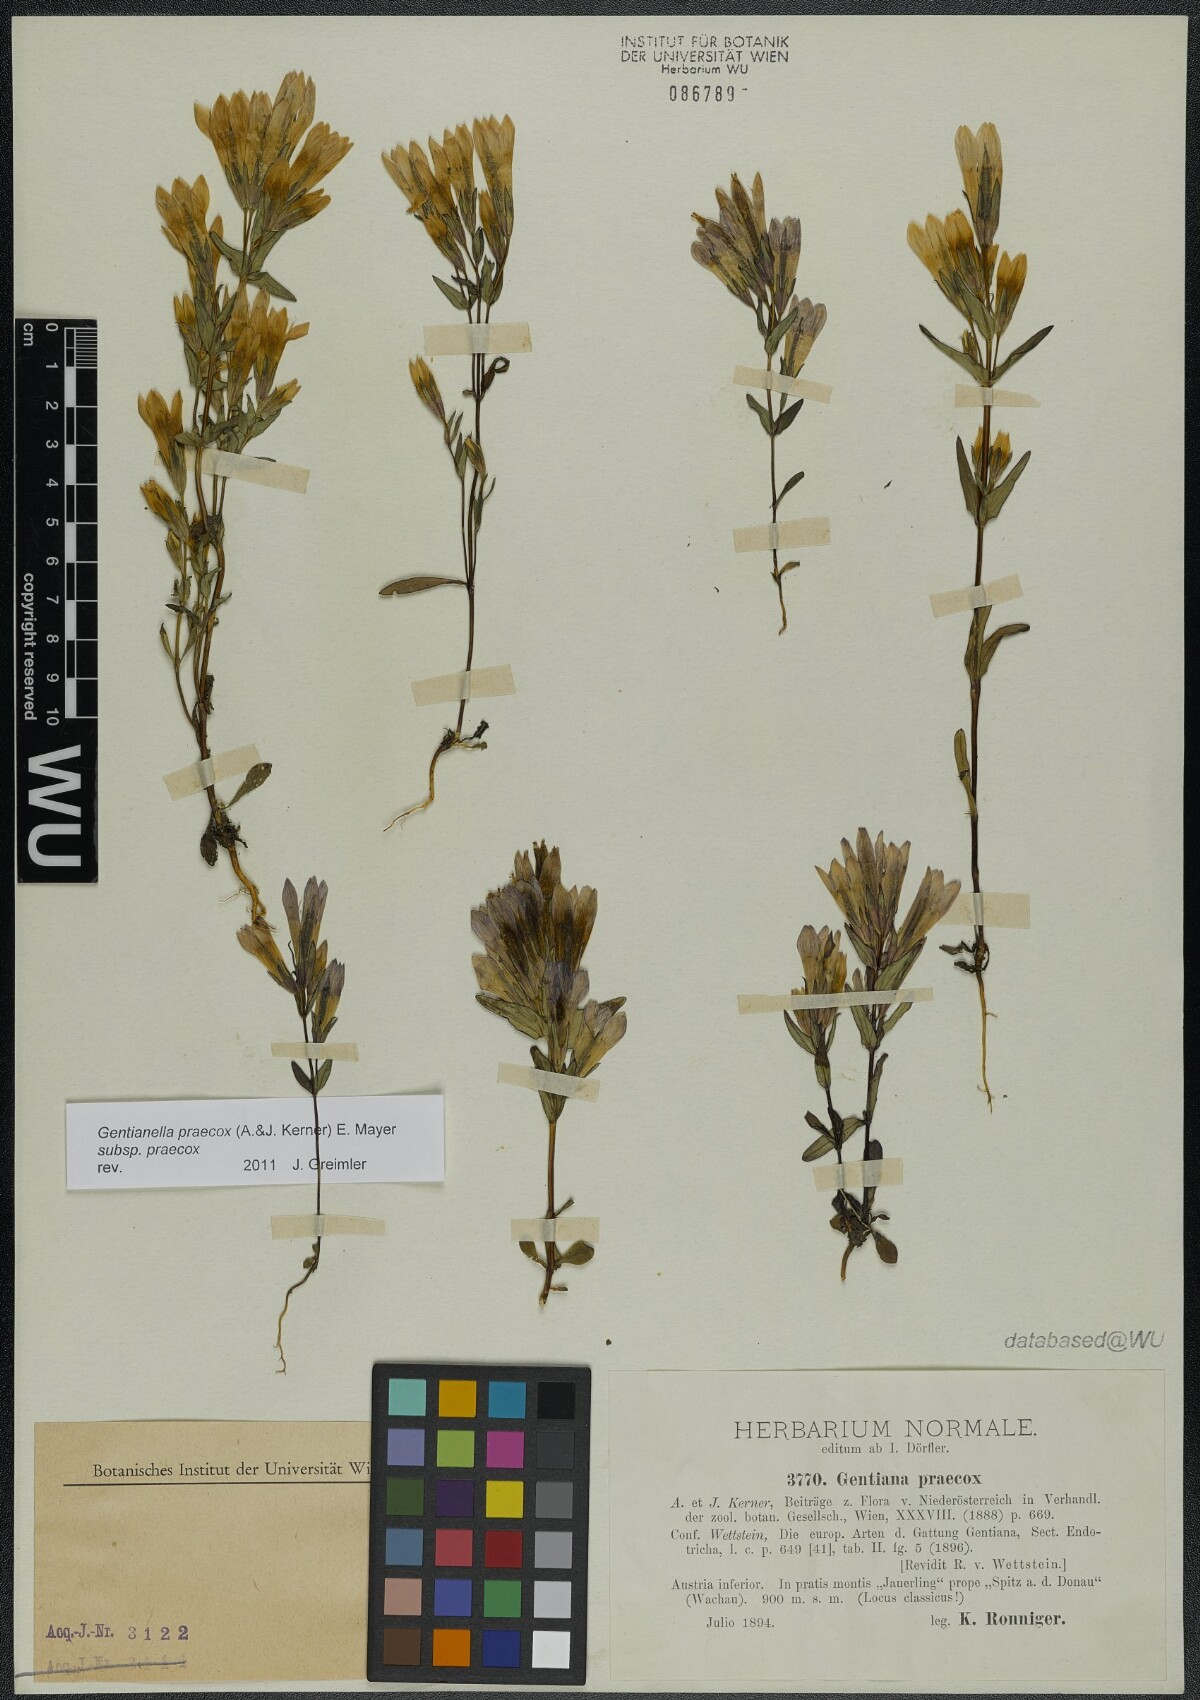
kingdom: Plantae
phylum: Tracheophyta
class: Magnoliopsida
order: Gentianales
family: Gentianaceae
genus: Gentianella
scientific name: Gentianella praecox
